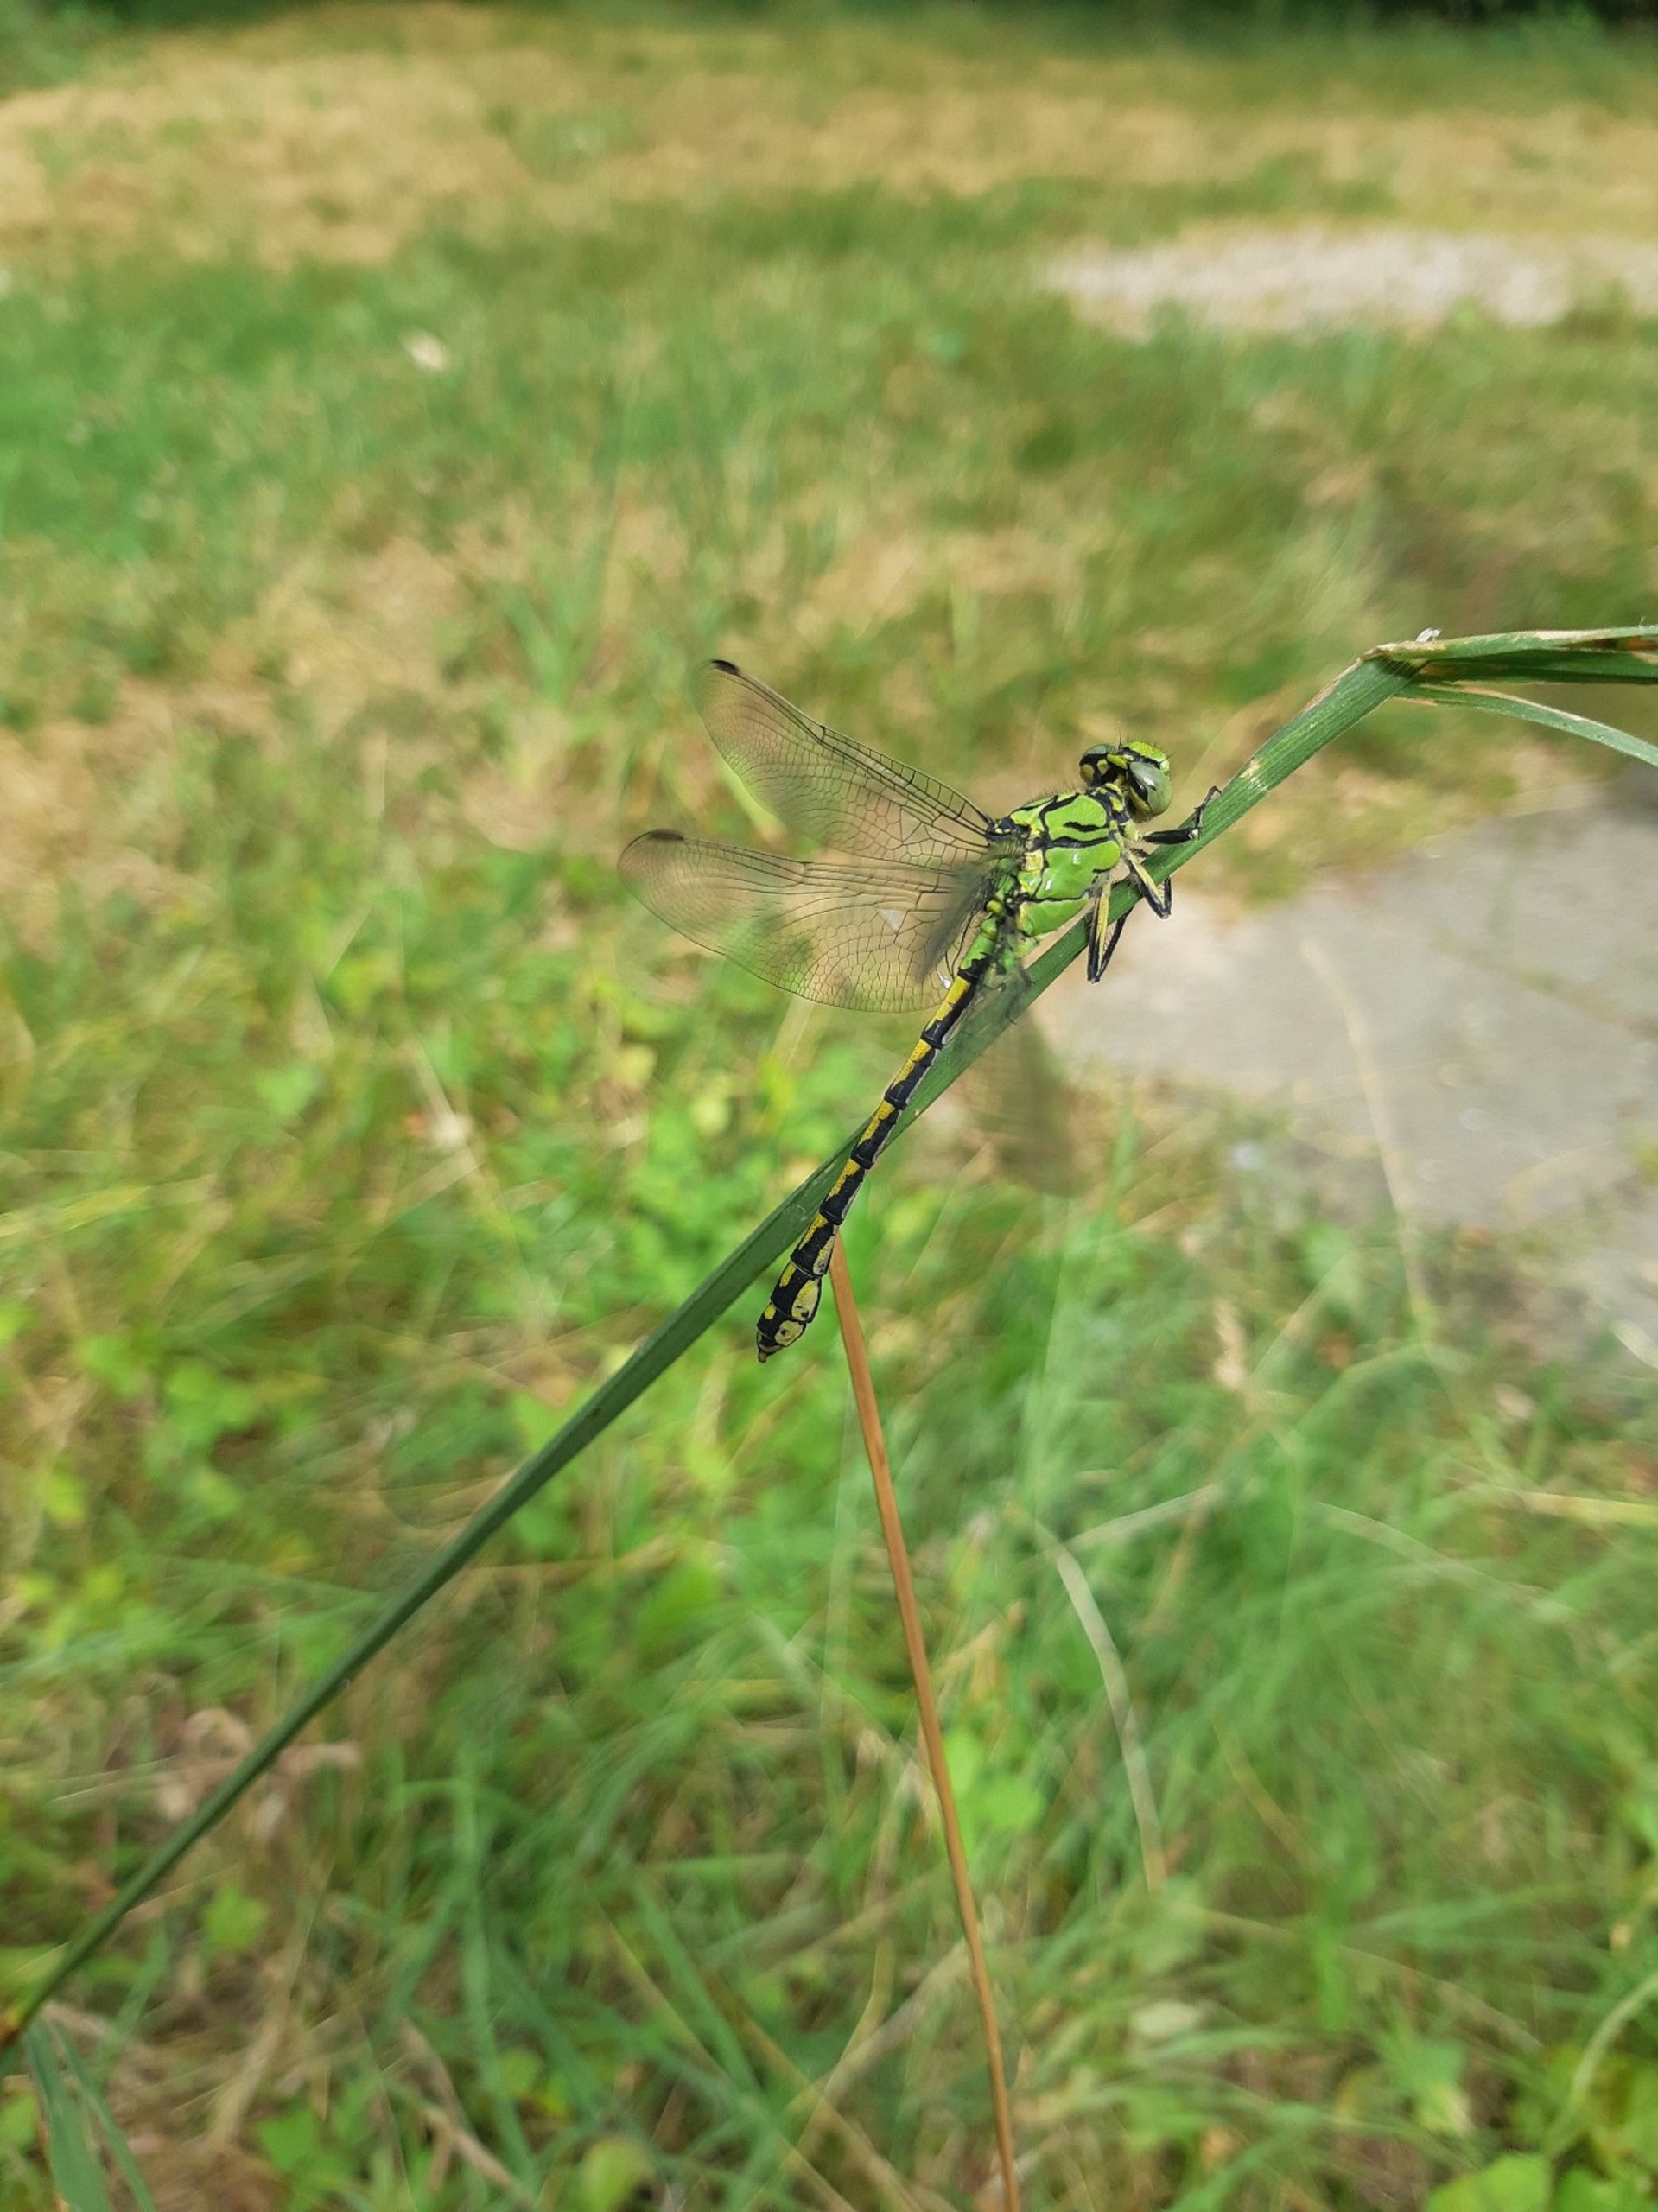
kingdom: Animalia
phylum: Arthropoda
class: Insecta
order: Odonata
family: Gomphidae
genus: Ophiogomphus
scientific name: Ophiogomphus cecilia
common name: Grøn kølleguldsmed
